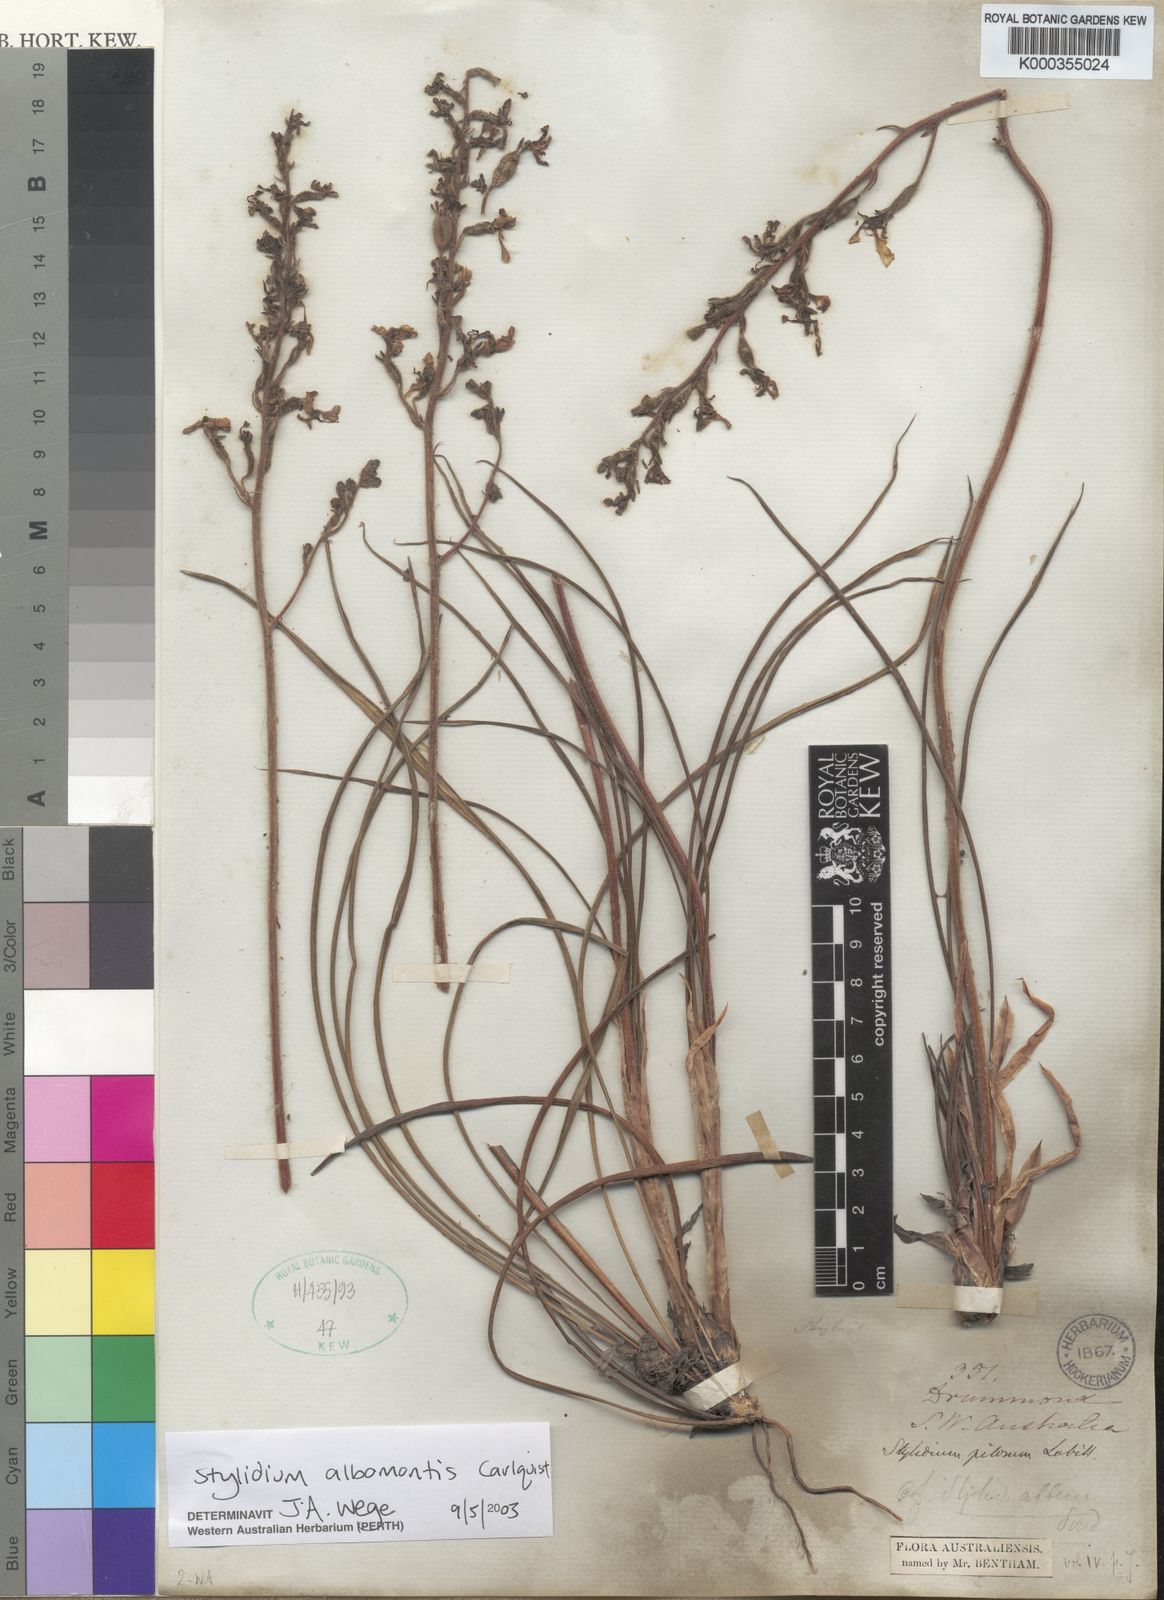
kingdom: Plantae
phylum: Tracheophyta
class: Magnoliopsida
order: Asterales
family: Stylidiaceae
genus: Stylidium
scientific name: Stylidium
